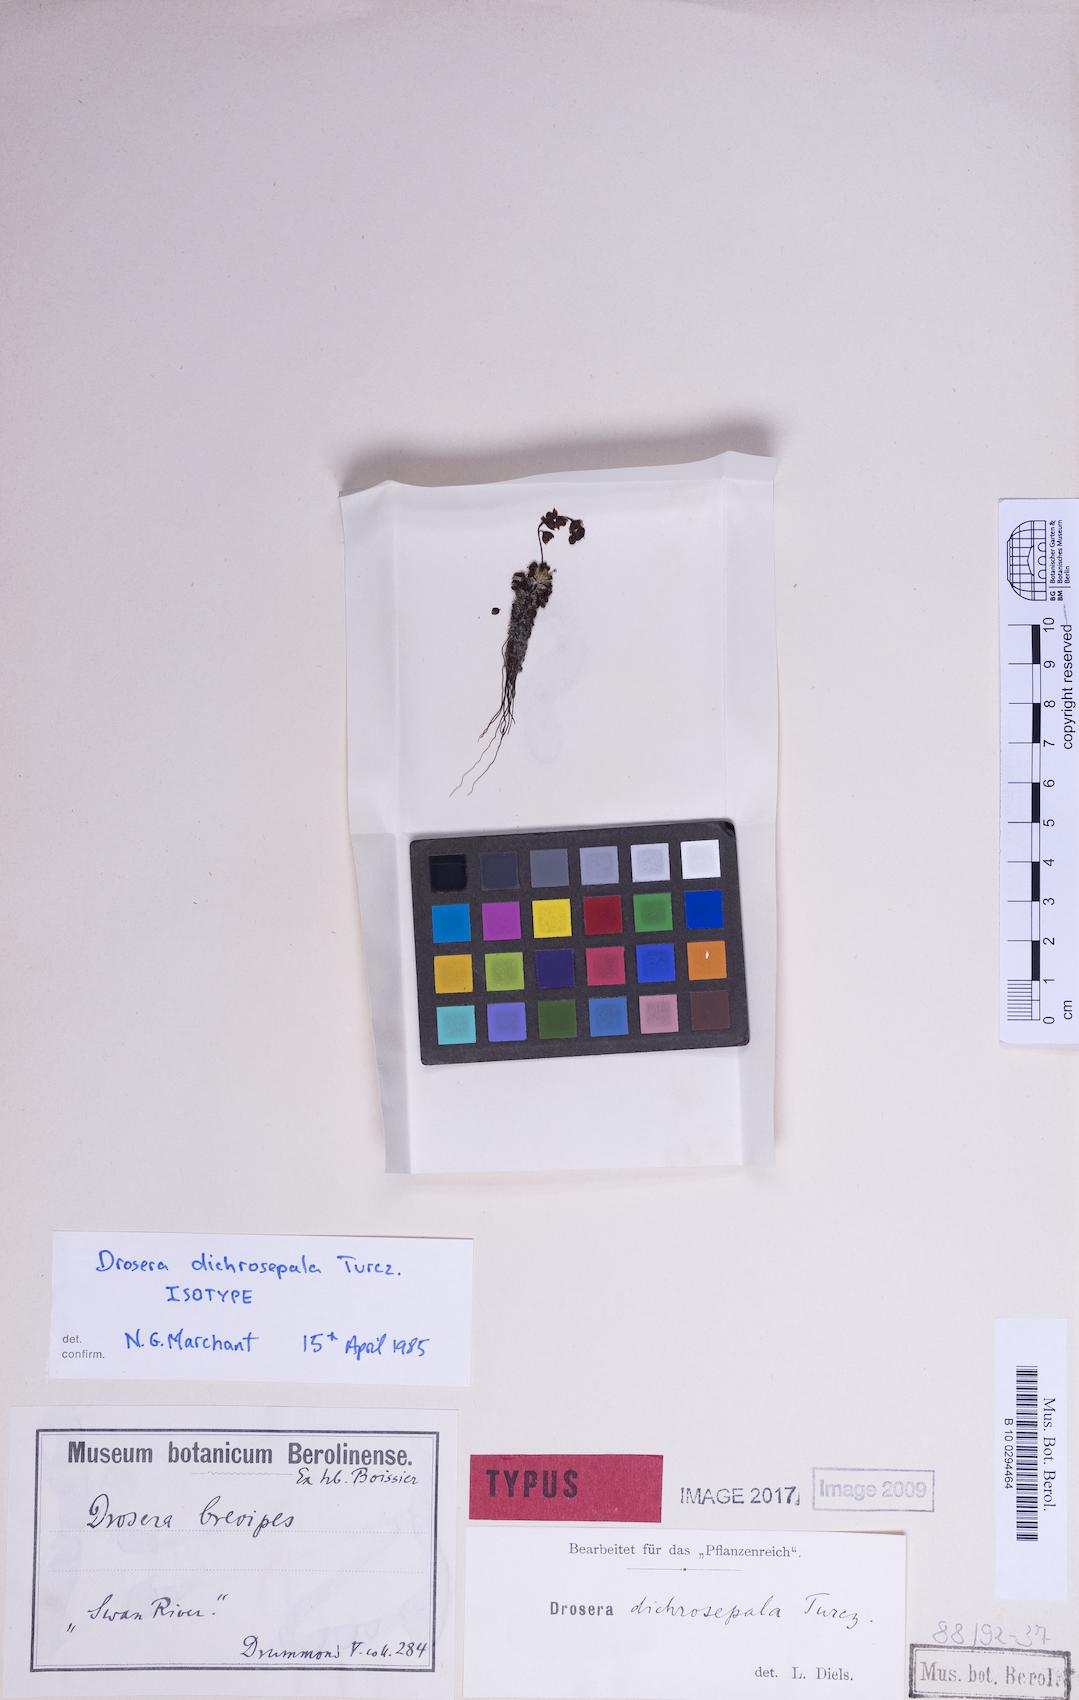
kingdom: Plantae
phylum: Tracheophyta
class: Magnoliopsida
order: Caryophyllales
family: Droseraceae
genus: Drosera
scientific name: Drosera dichrosepala
